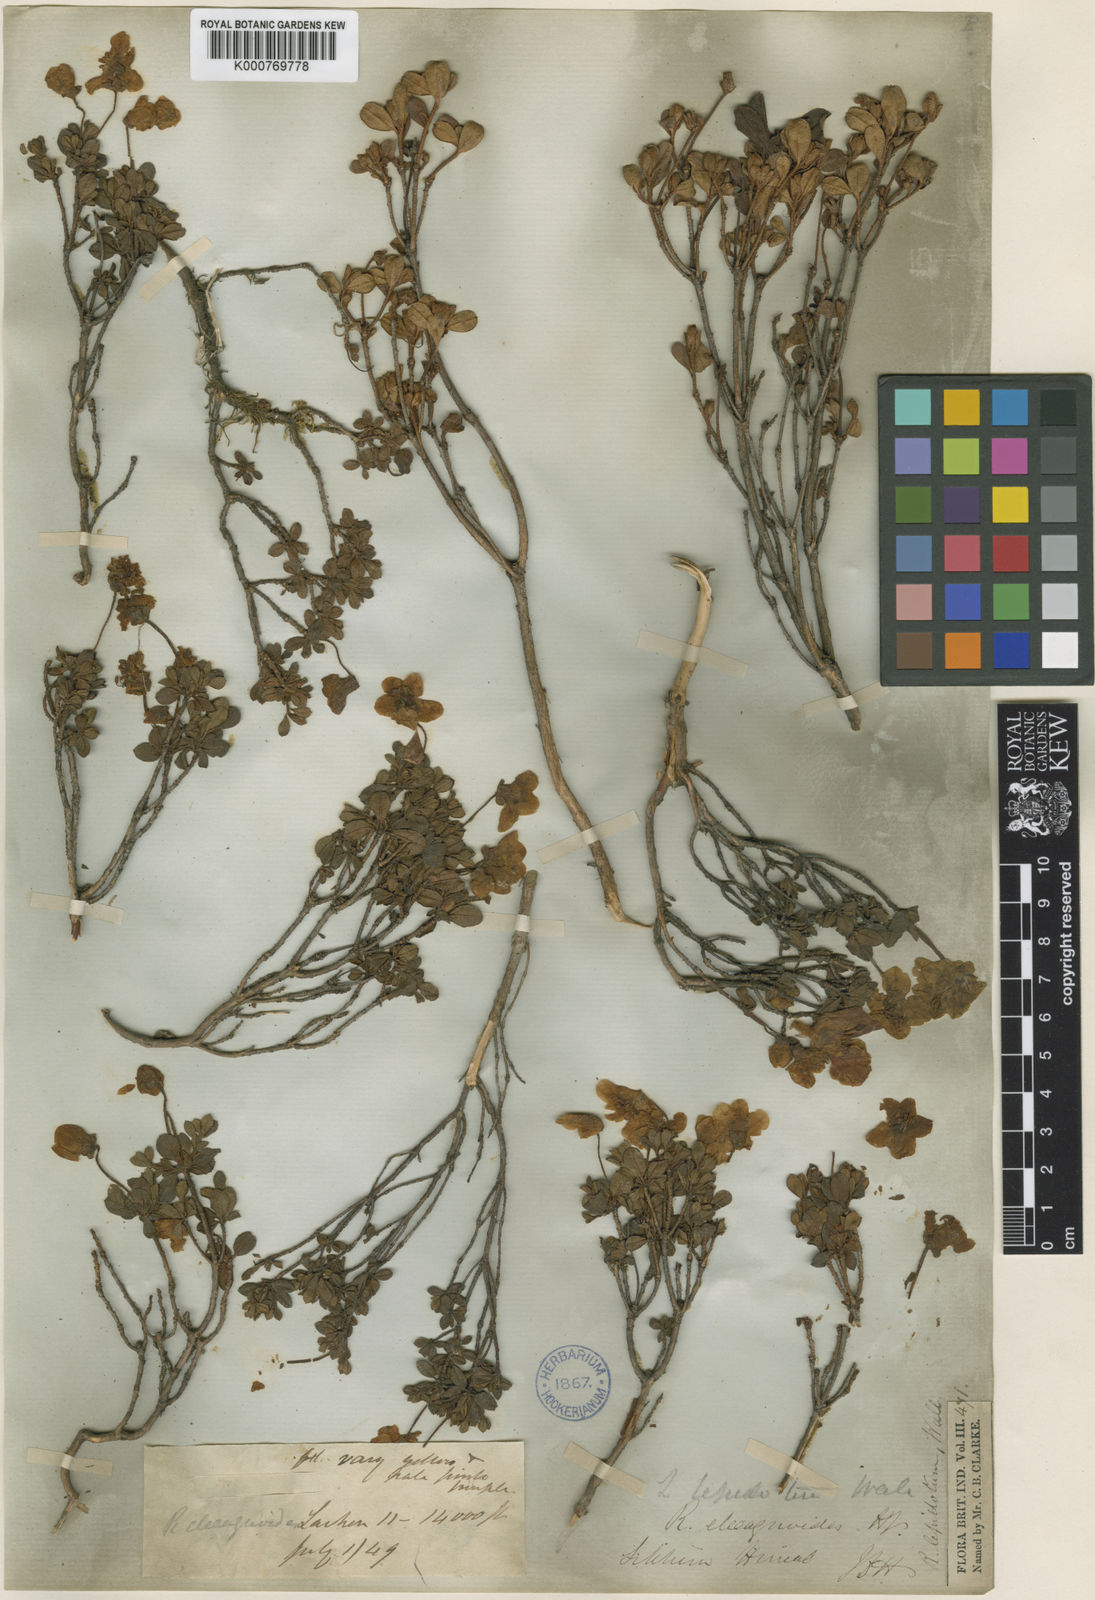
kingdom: Plantae
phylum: Tracheophyta
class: Magnoliopsida
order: Ericales
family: Ericaceae
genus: Rhododendron
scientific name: Rhododendron lepidotum
